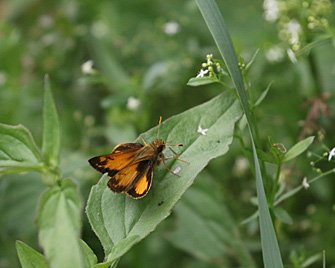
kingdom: Animalia
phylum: Arthropoda
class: Insecta
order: Lepidoptera
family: Hesperiidae
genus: Lon
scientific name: Lon zabulon
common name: Zabulon Skipper
